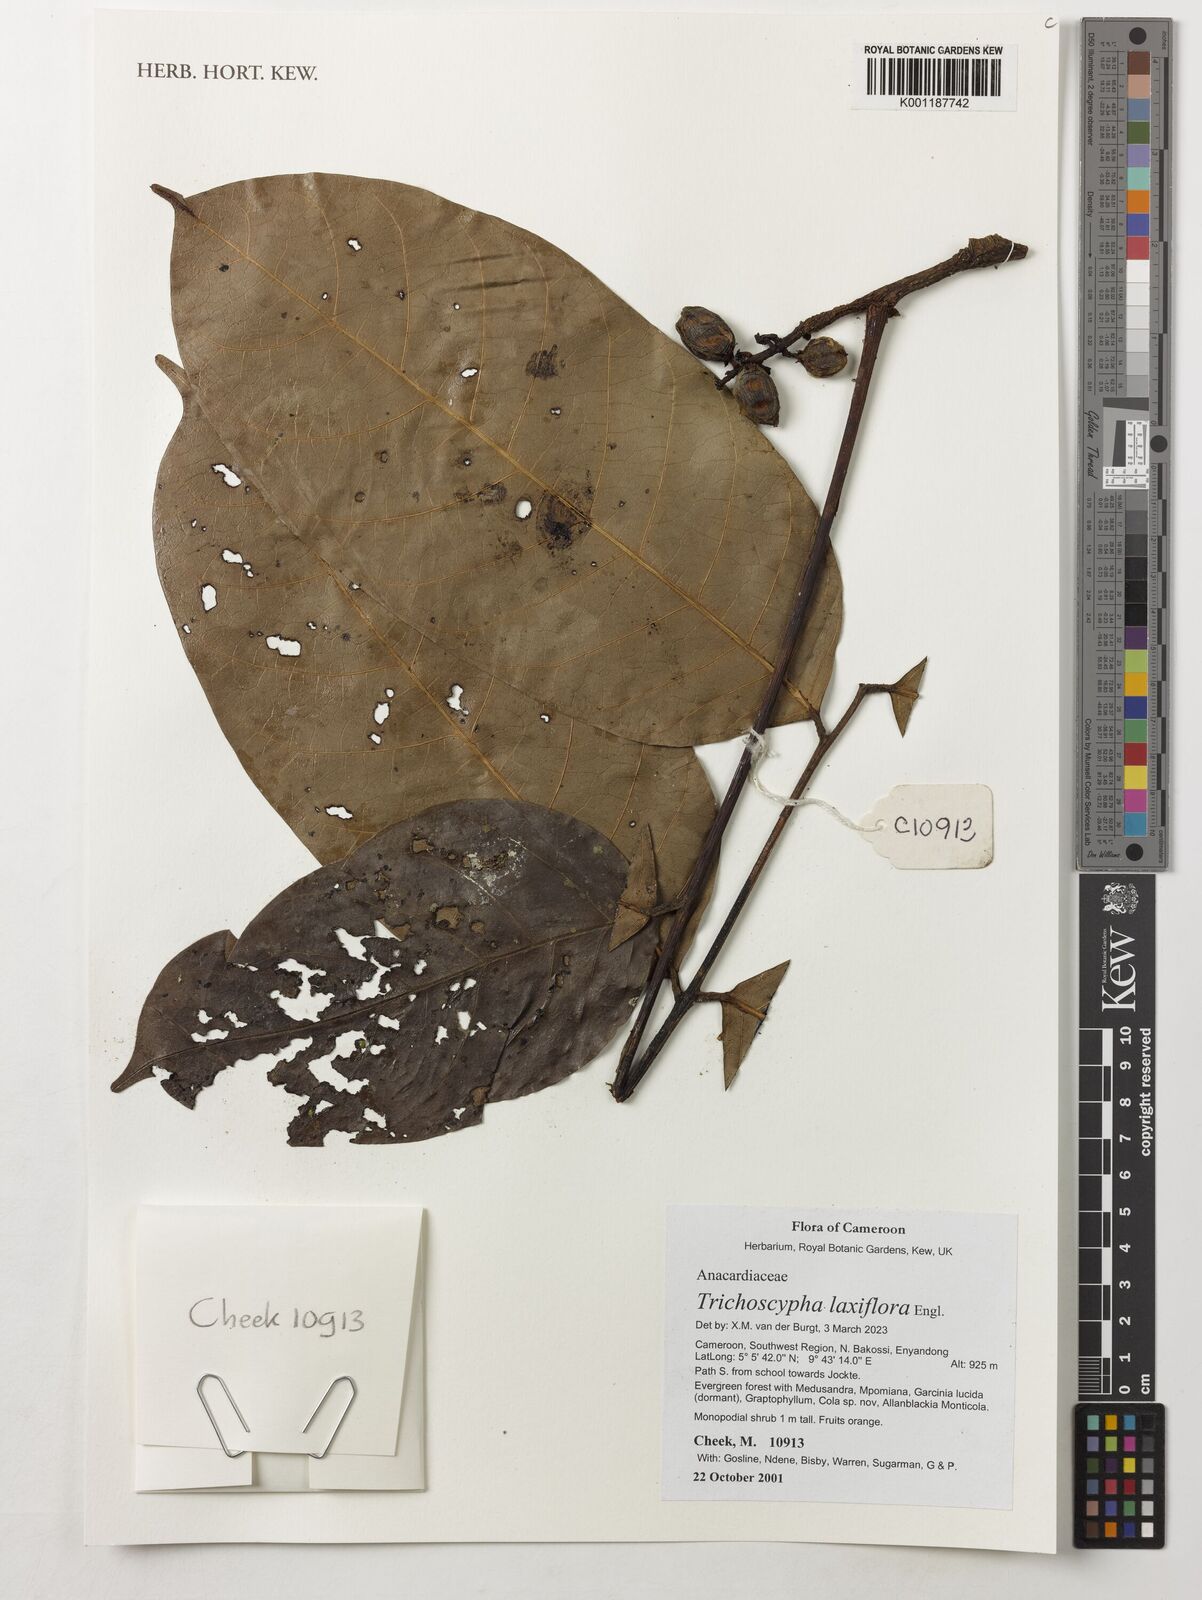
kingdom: Plantae
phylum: Tracheophyta
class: Magnoliopsida
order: Sapindales
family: Anacardiaceae
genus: Trichoscypha
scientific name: Trichoscypha laxiflora
